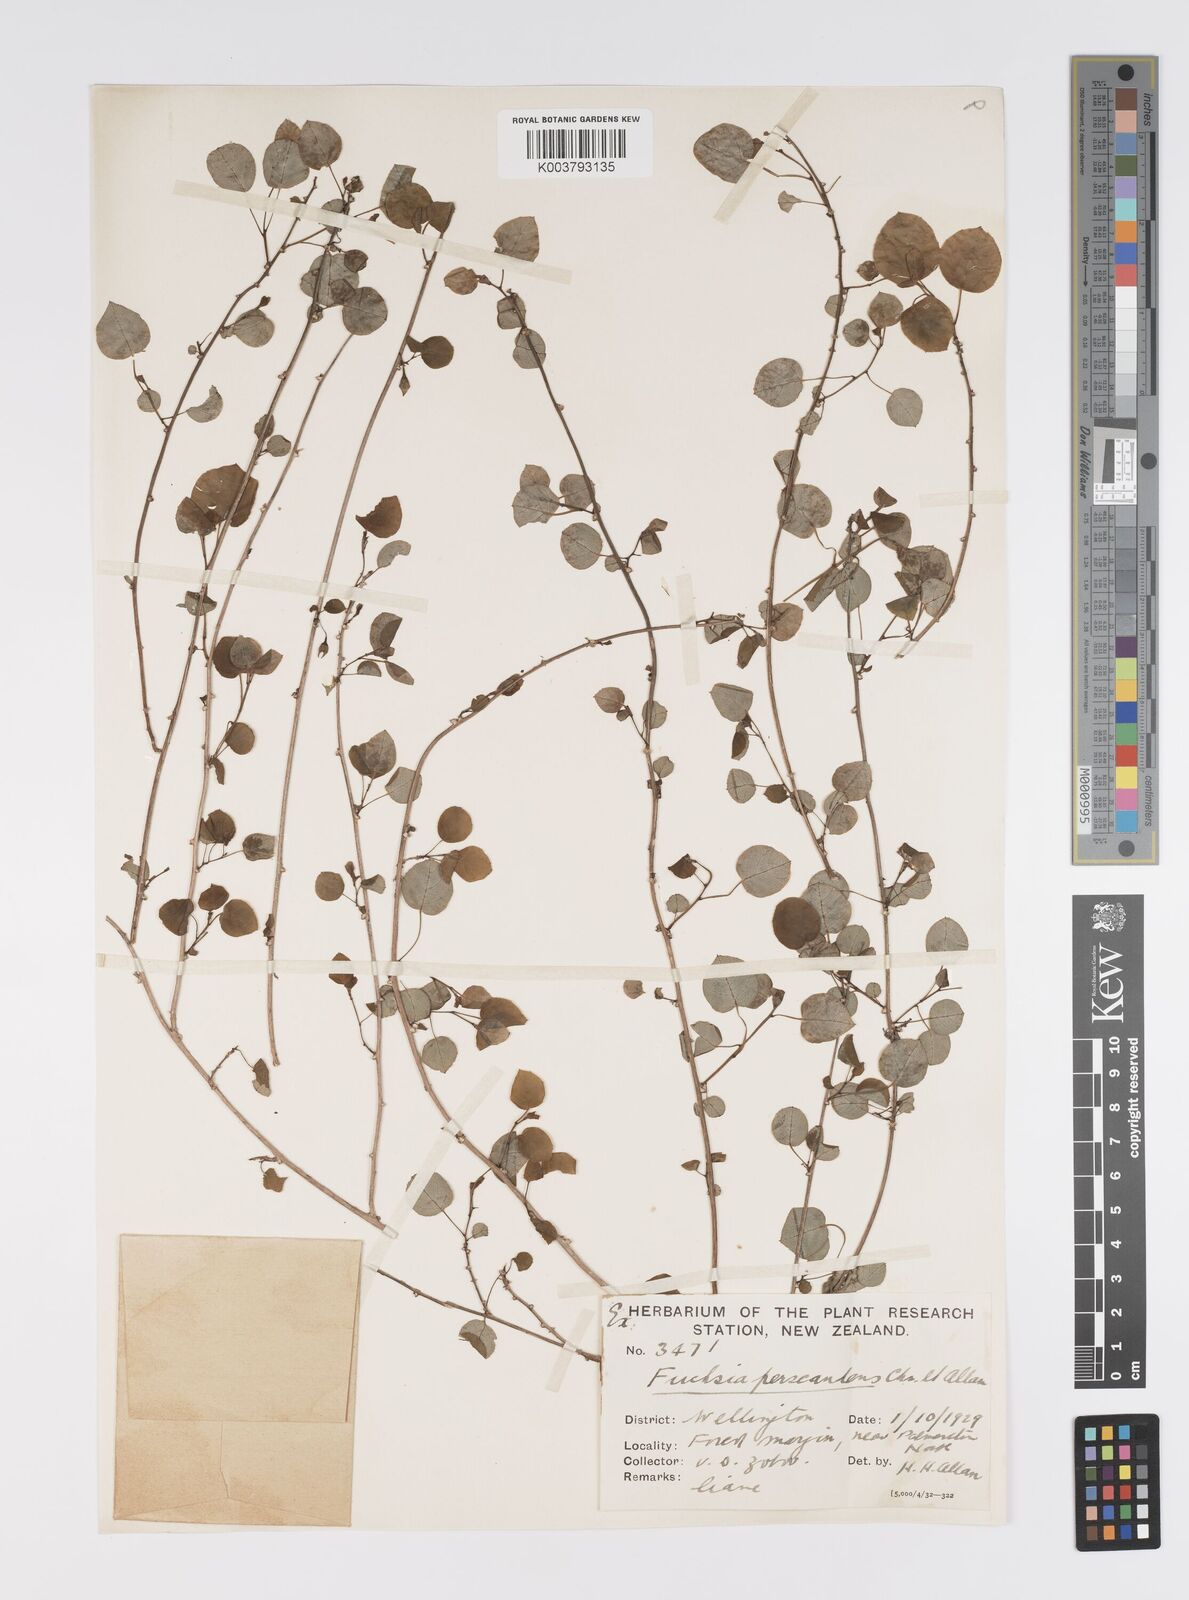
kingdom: Plantae
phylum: Tracheophyta
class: Magnoliopsida
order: Myrtales
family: Onagraceae
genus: Fuchsia
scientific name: Fuchsia perscandens
